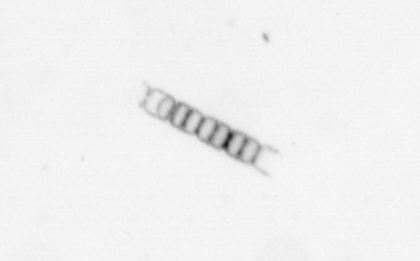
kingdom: Chromista
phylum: Ochrophyta
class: Bacillariophyceae
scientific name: Bacillariophyceae
